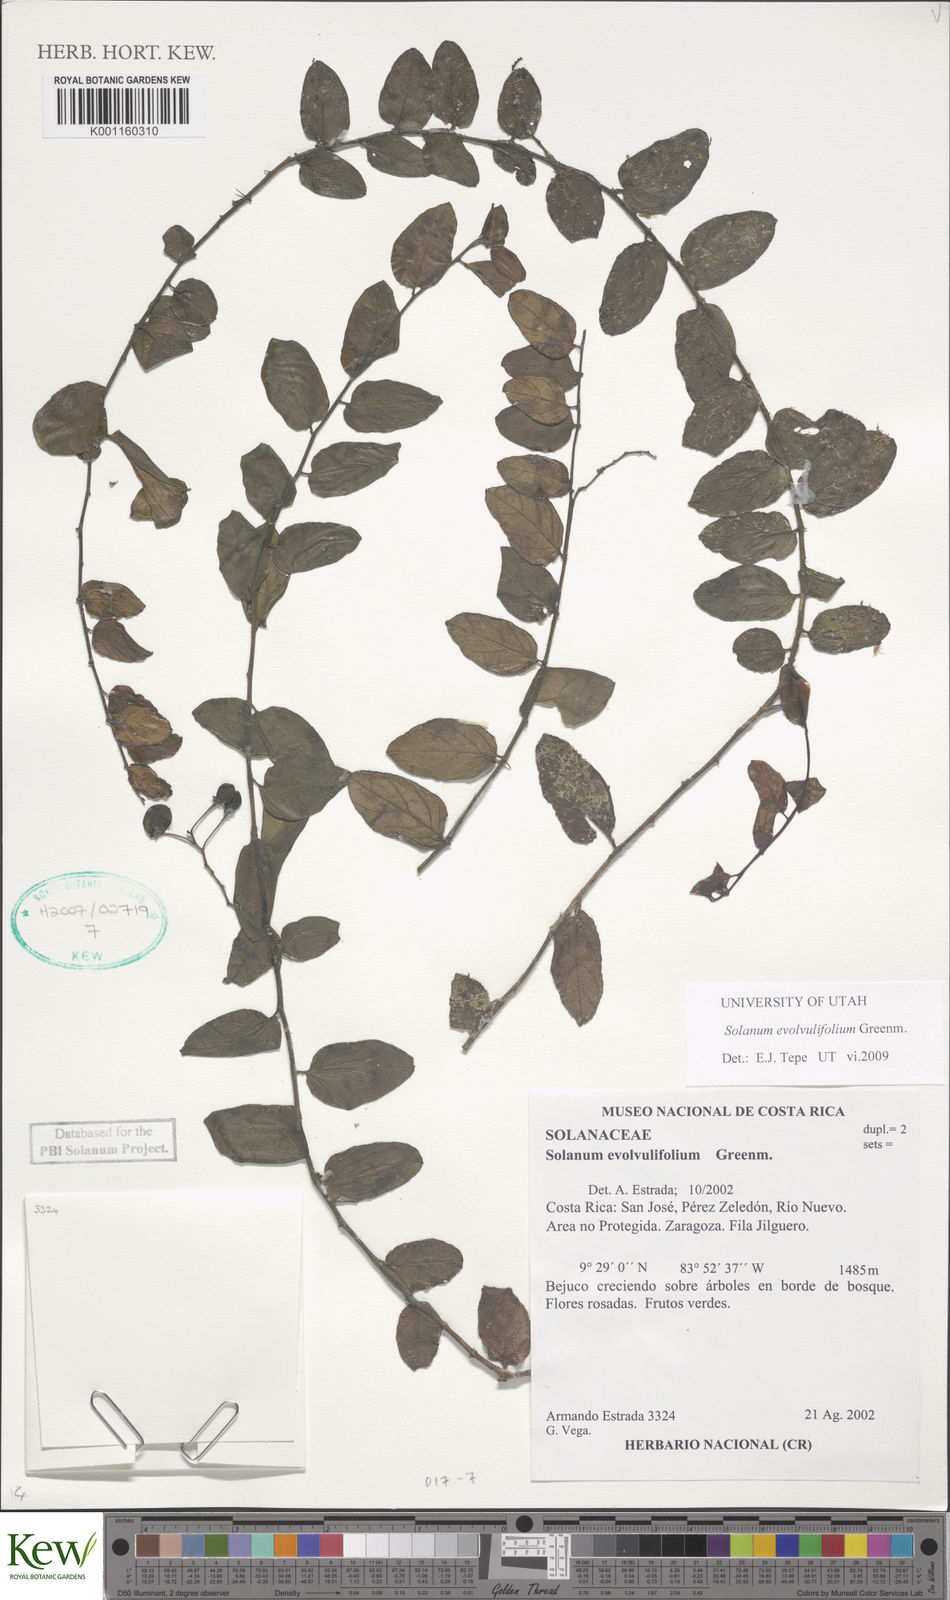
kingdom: Plantae
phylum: Tracheophyta
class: Magnoliopsida
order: Solanales
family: Solanaceae
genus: Solanum
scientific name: Solanum evolvulifolium
